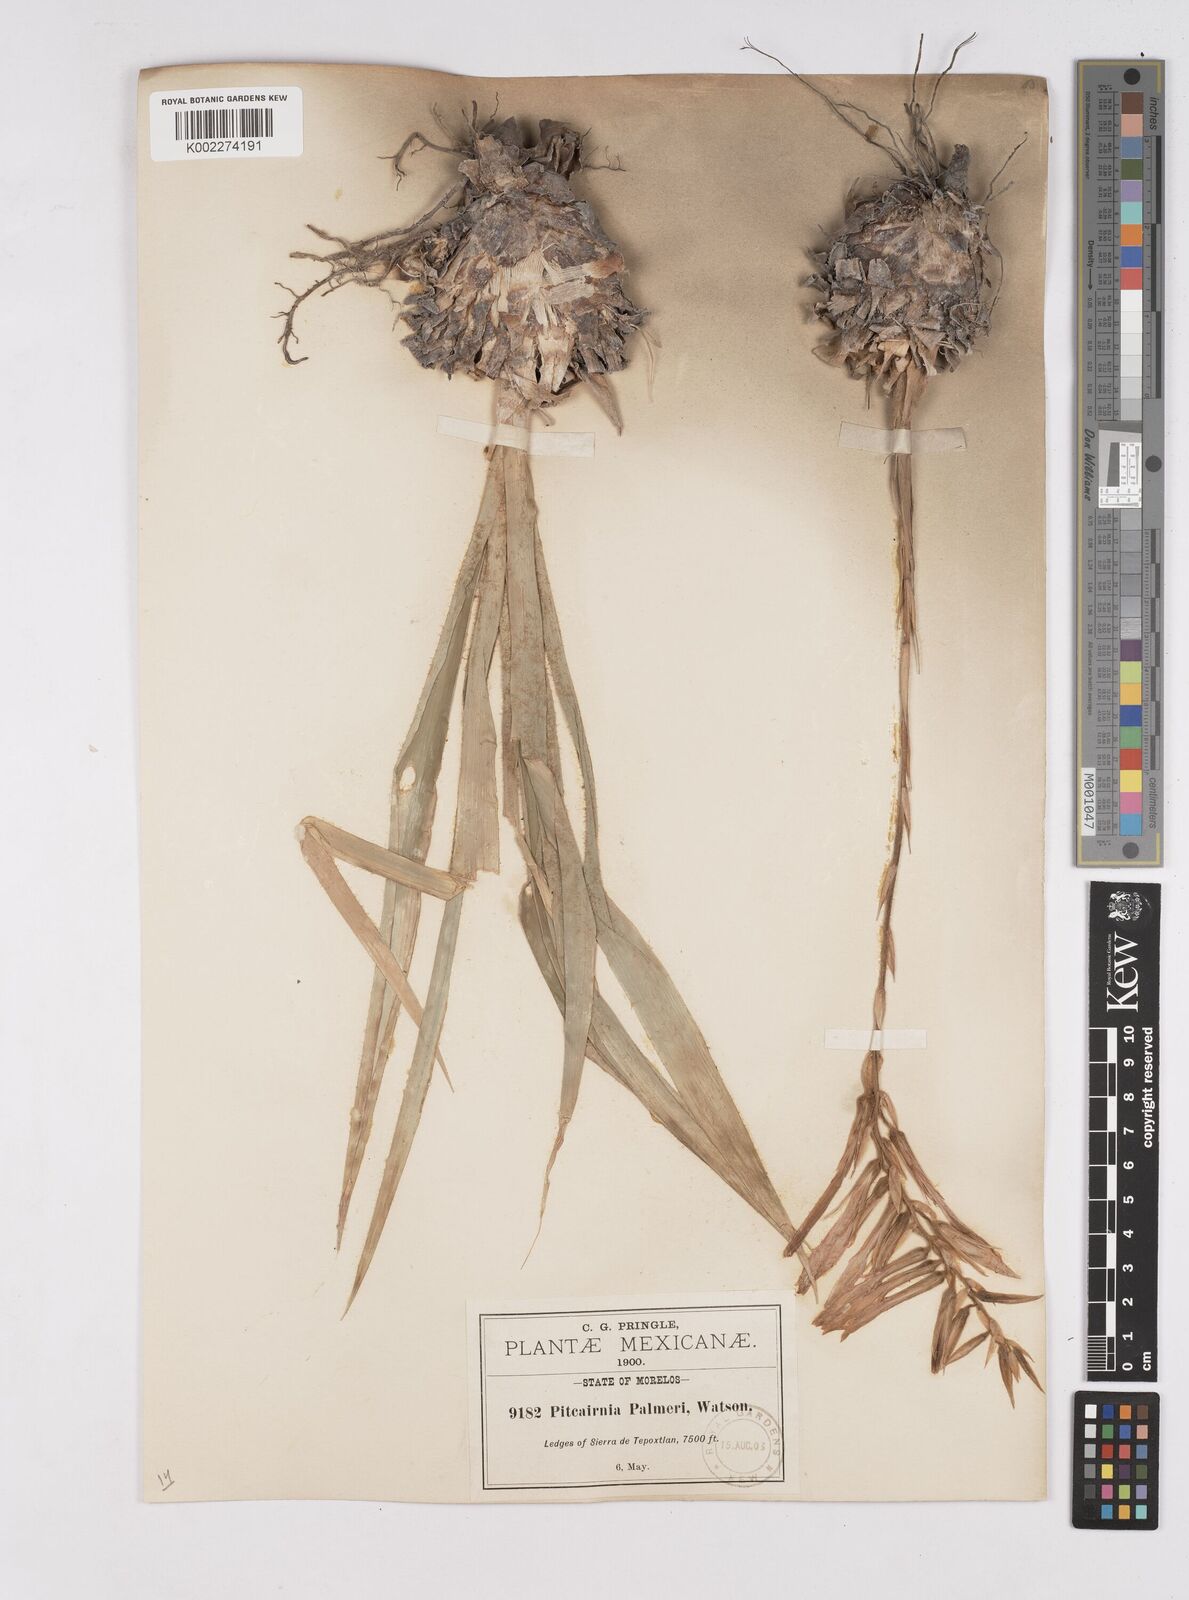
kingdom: Plantae
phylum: Tracheophyta
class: Liliopsida
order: Poales
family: Bromeliaceae
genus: Pitcairnia
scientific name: Pitcairnia palmeri
